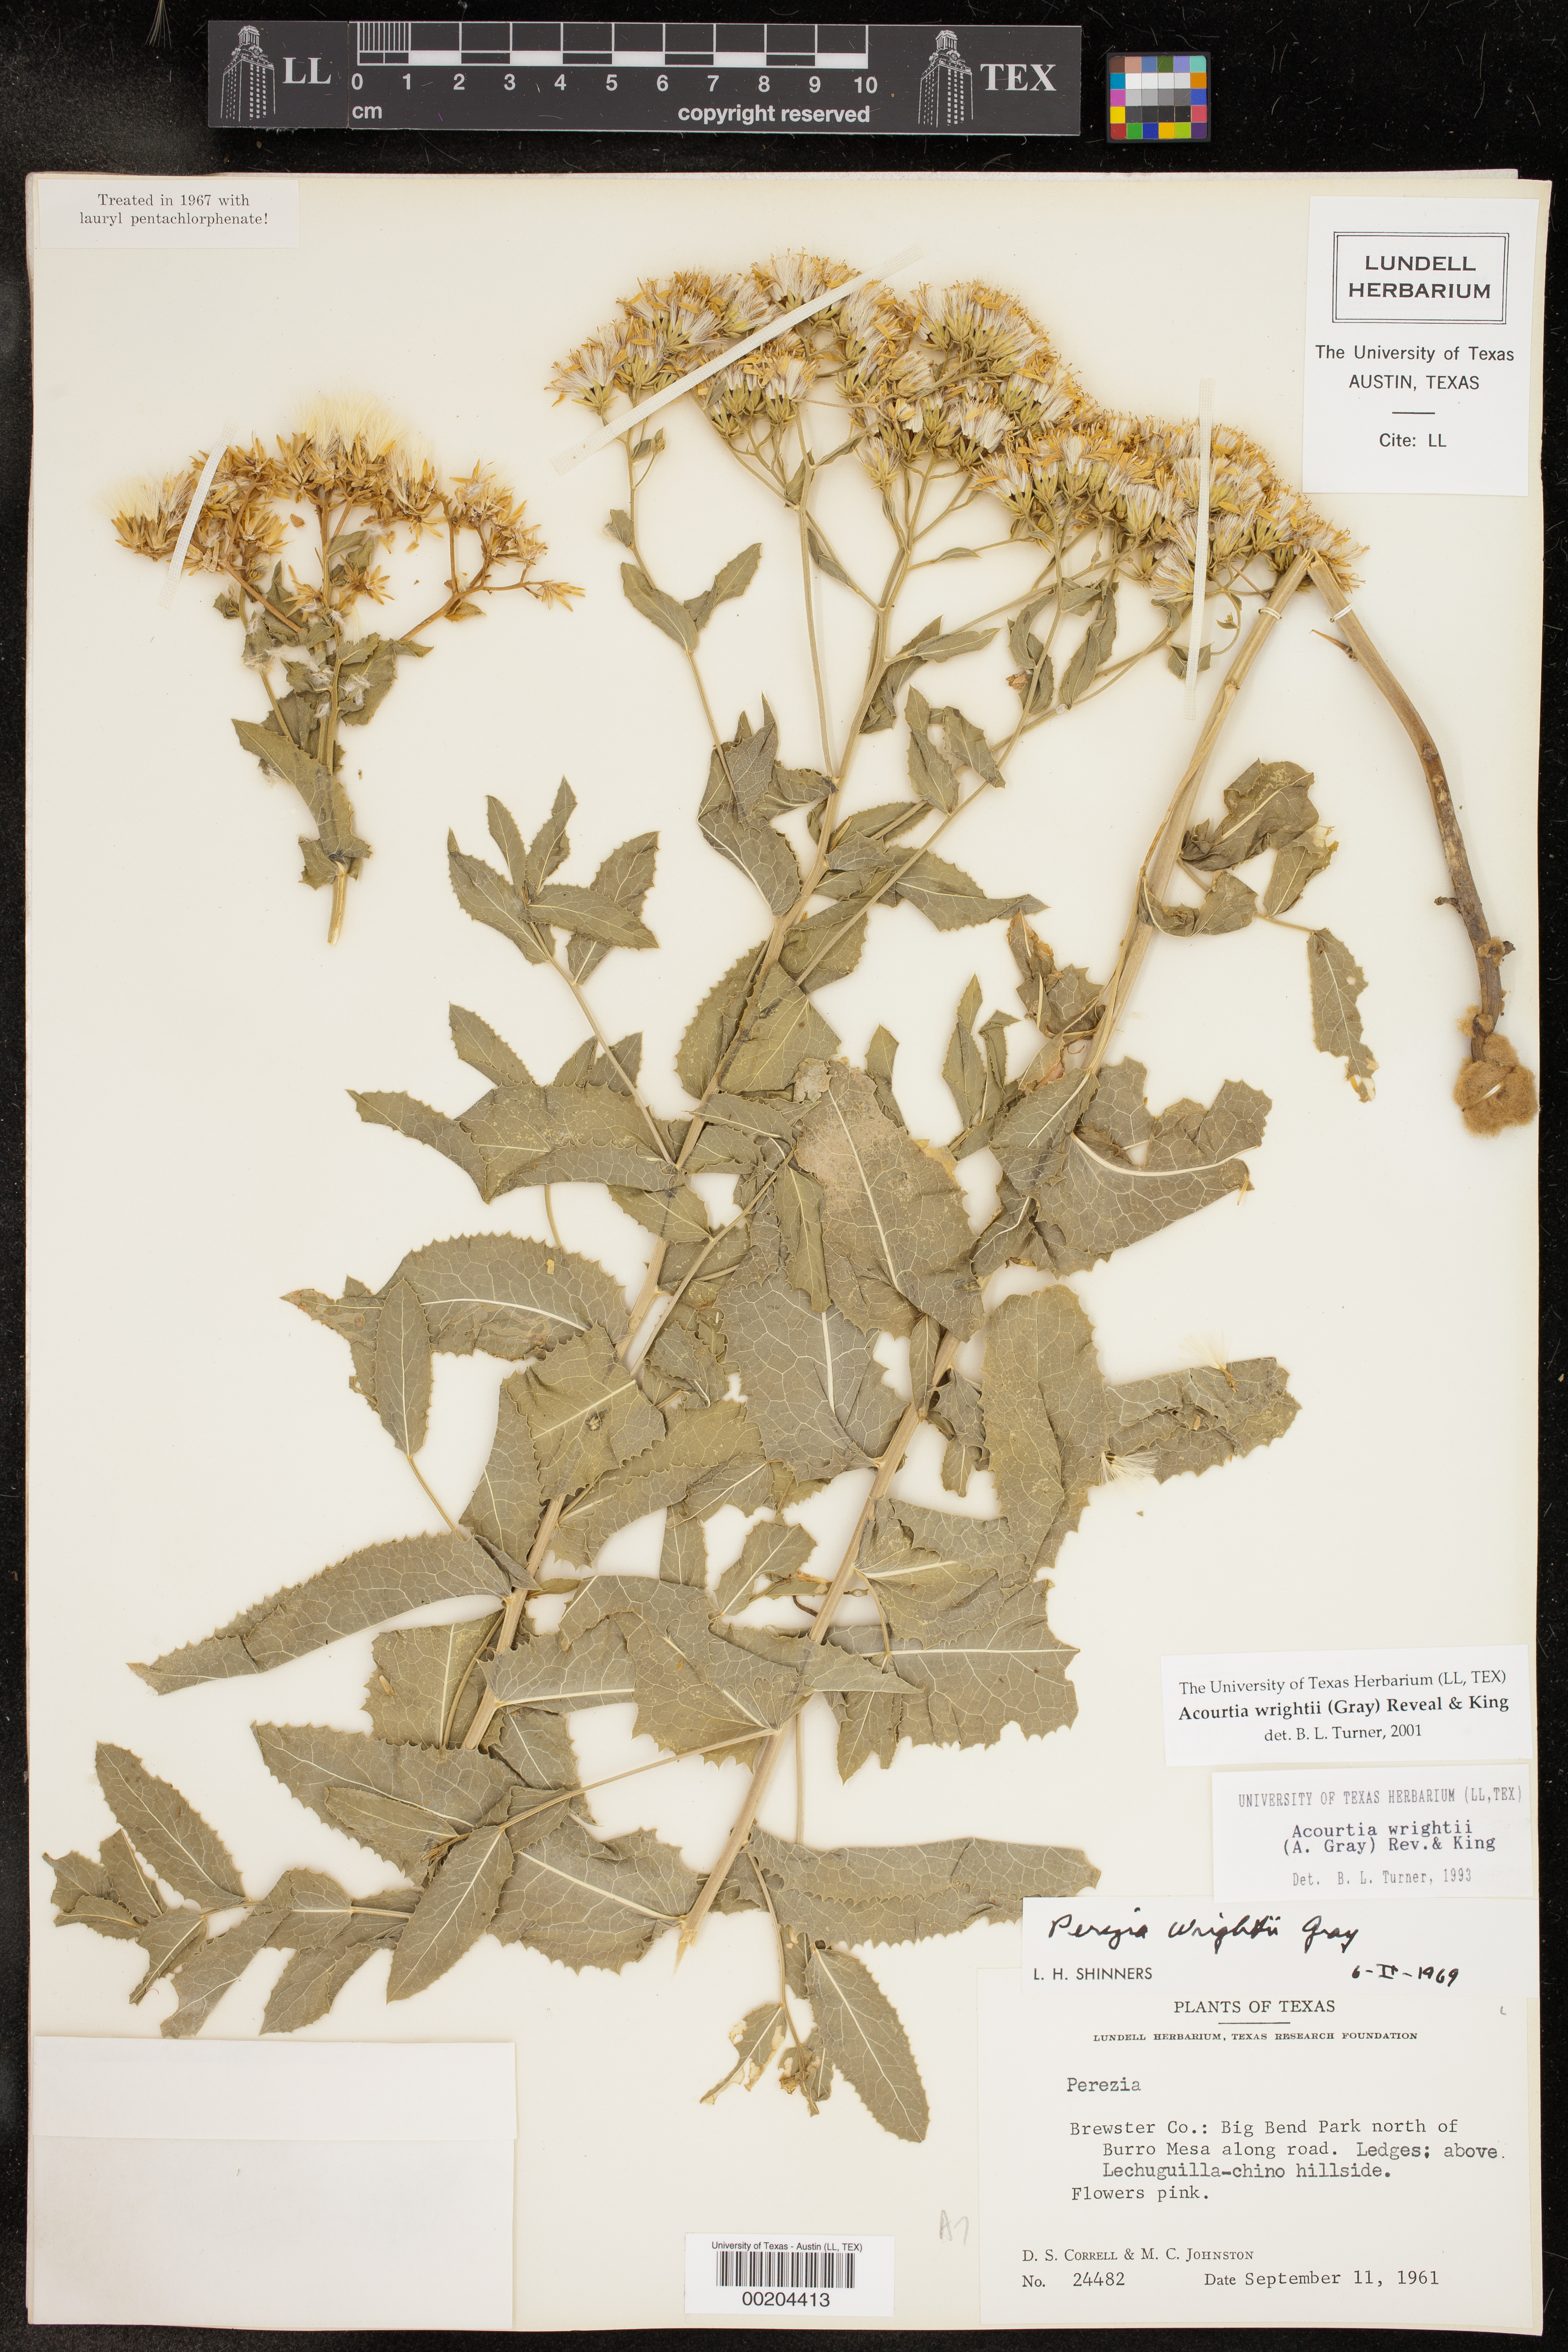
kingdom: Plantae
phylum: Tracheophyta
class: Magnoliopsida
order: Asterales
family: Asteraceae
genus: Acourtia
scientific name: Acourtia wrightii
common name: Brownfoot
